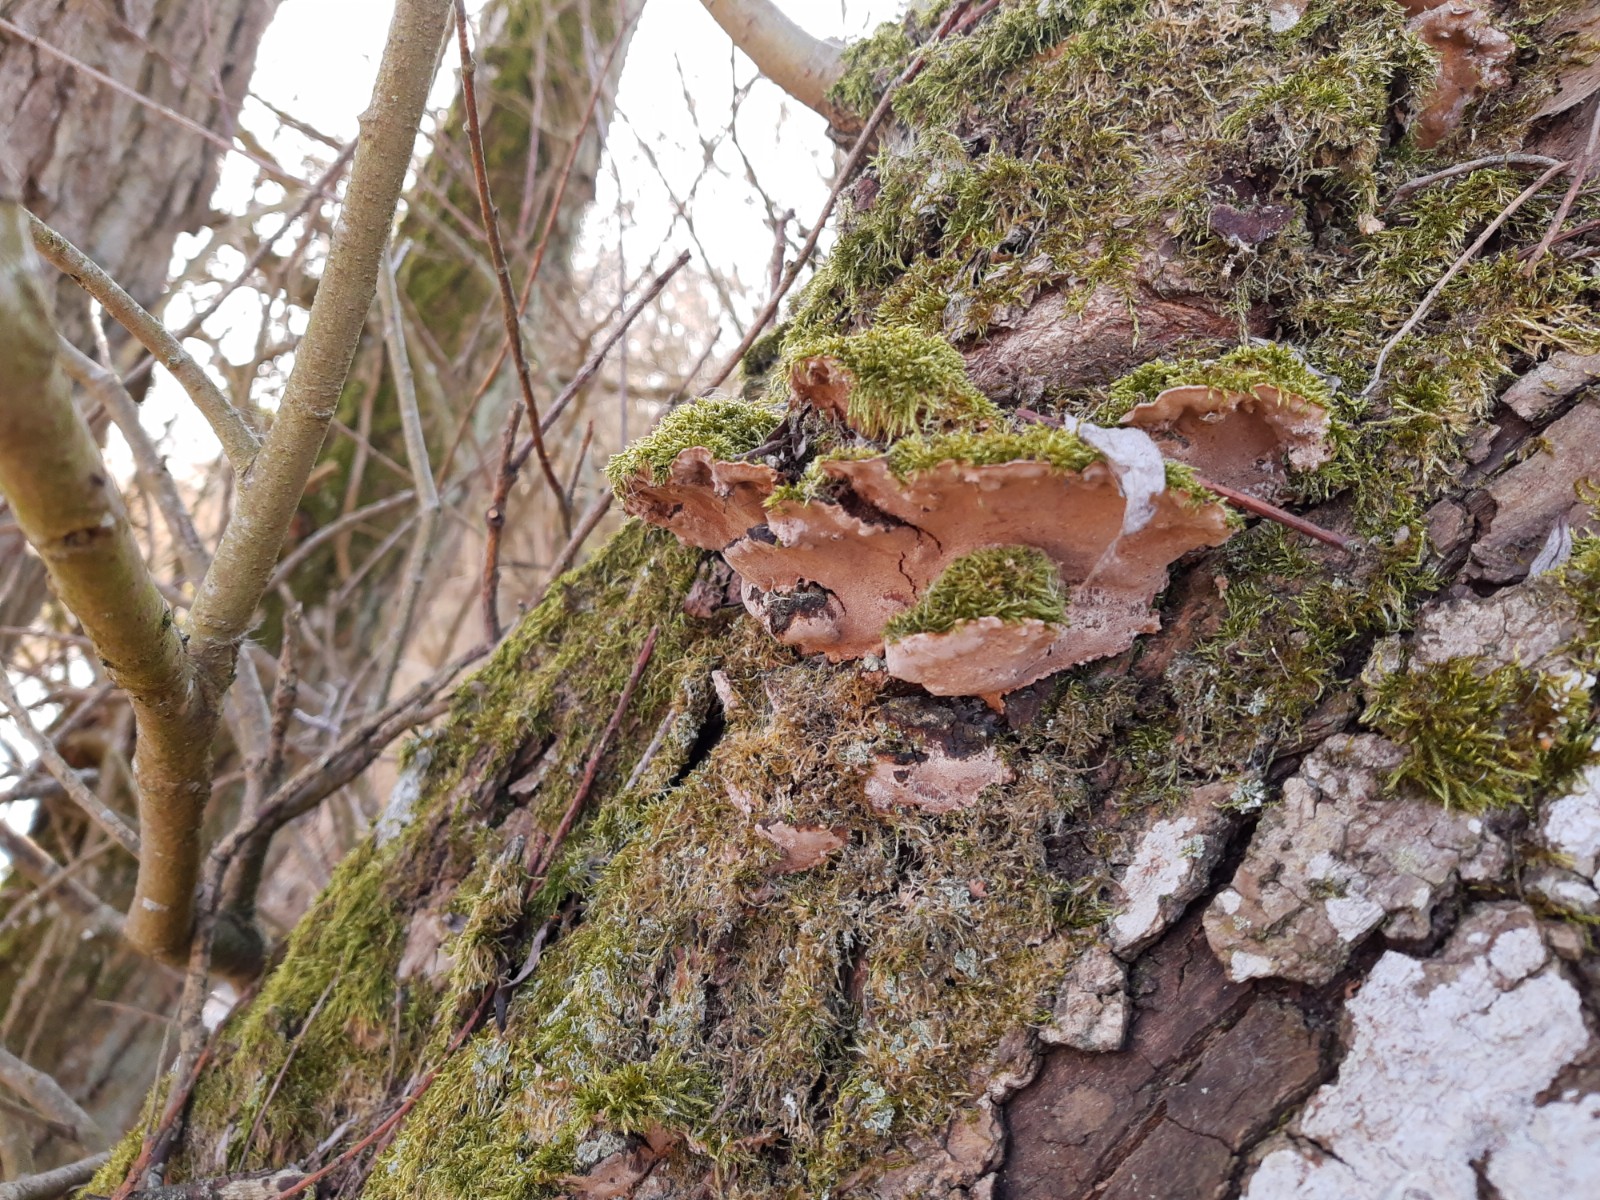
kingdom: Fungi
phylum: Basidiomycota
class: Agaricomycetes
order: Hymenochaetales
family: Hymenochaetaceae
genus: Phellinopsis
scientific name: Phellinopsis conchata
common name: pile-ildporesvamp
